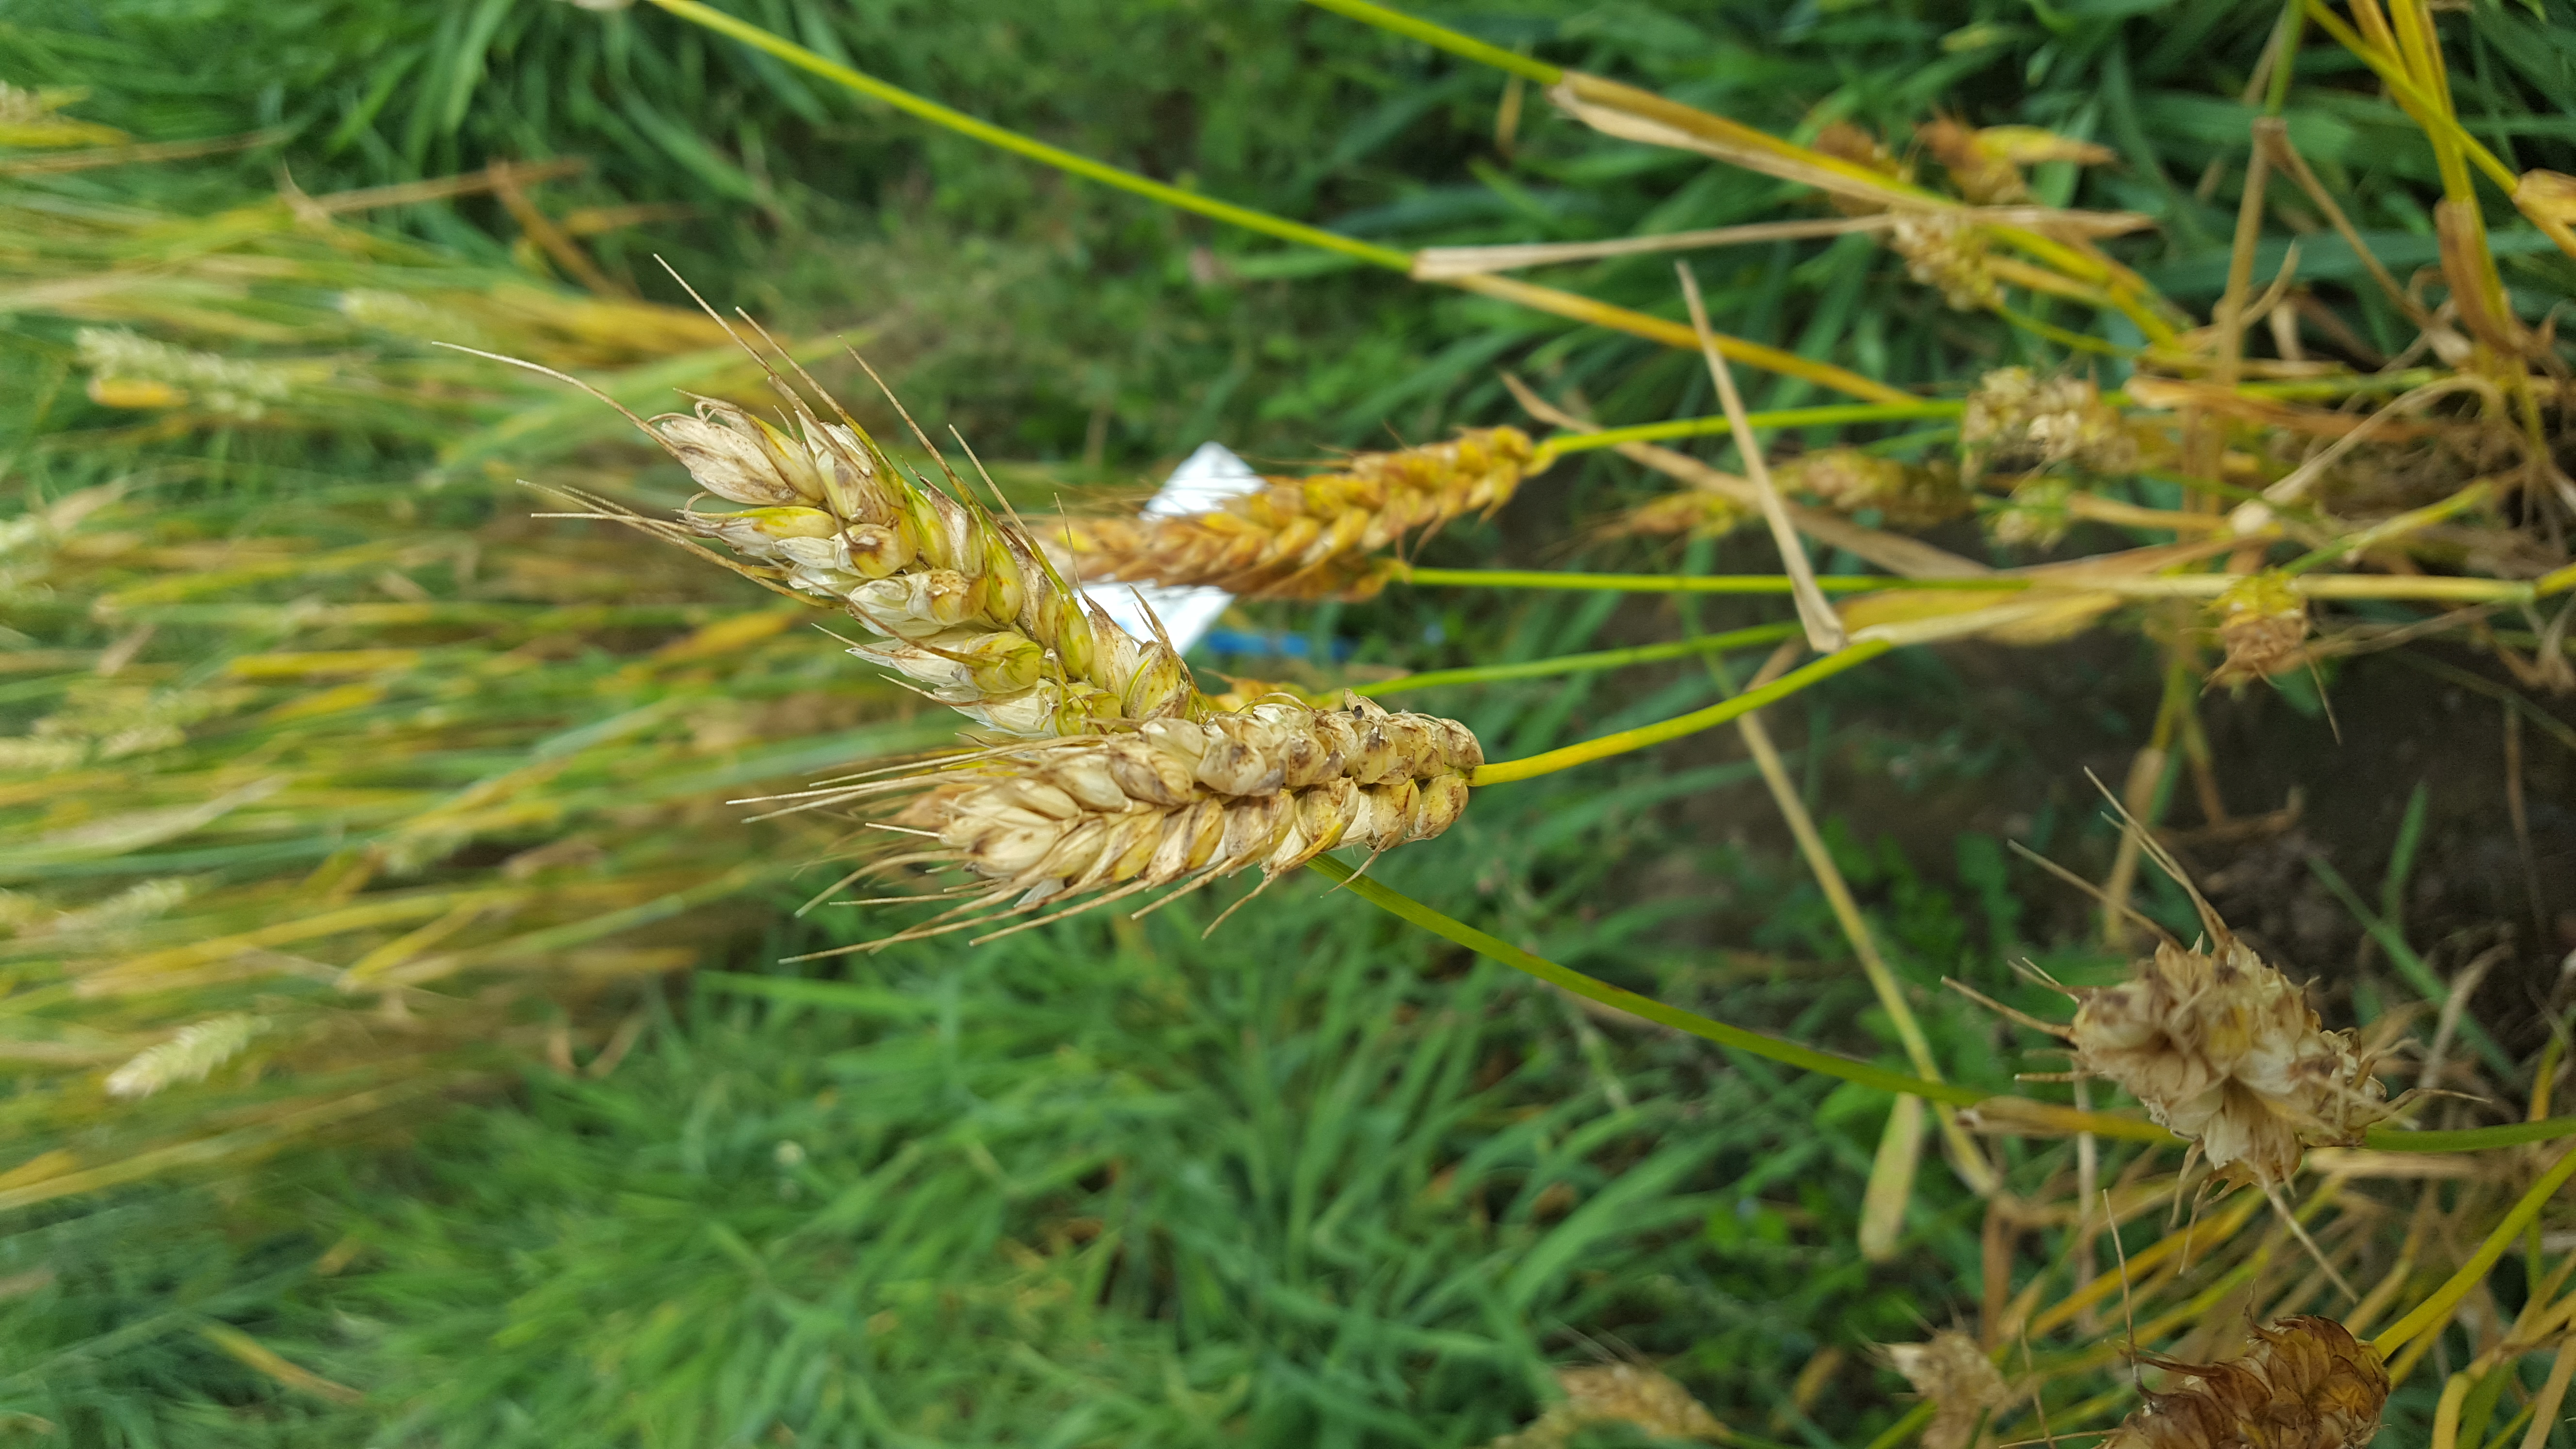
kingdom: Plantae
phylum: Tracheophyta
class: Liliopsida
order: Poales
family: Poaceae
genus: Triticum
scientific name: Triticum aestivum
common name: Common wheat
